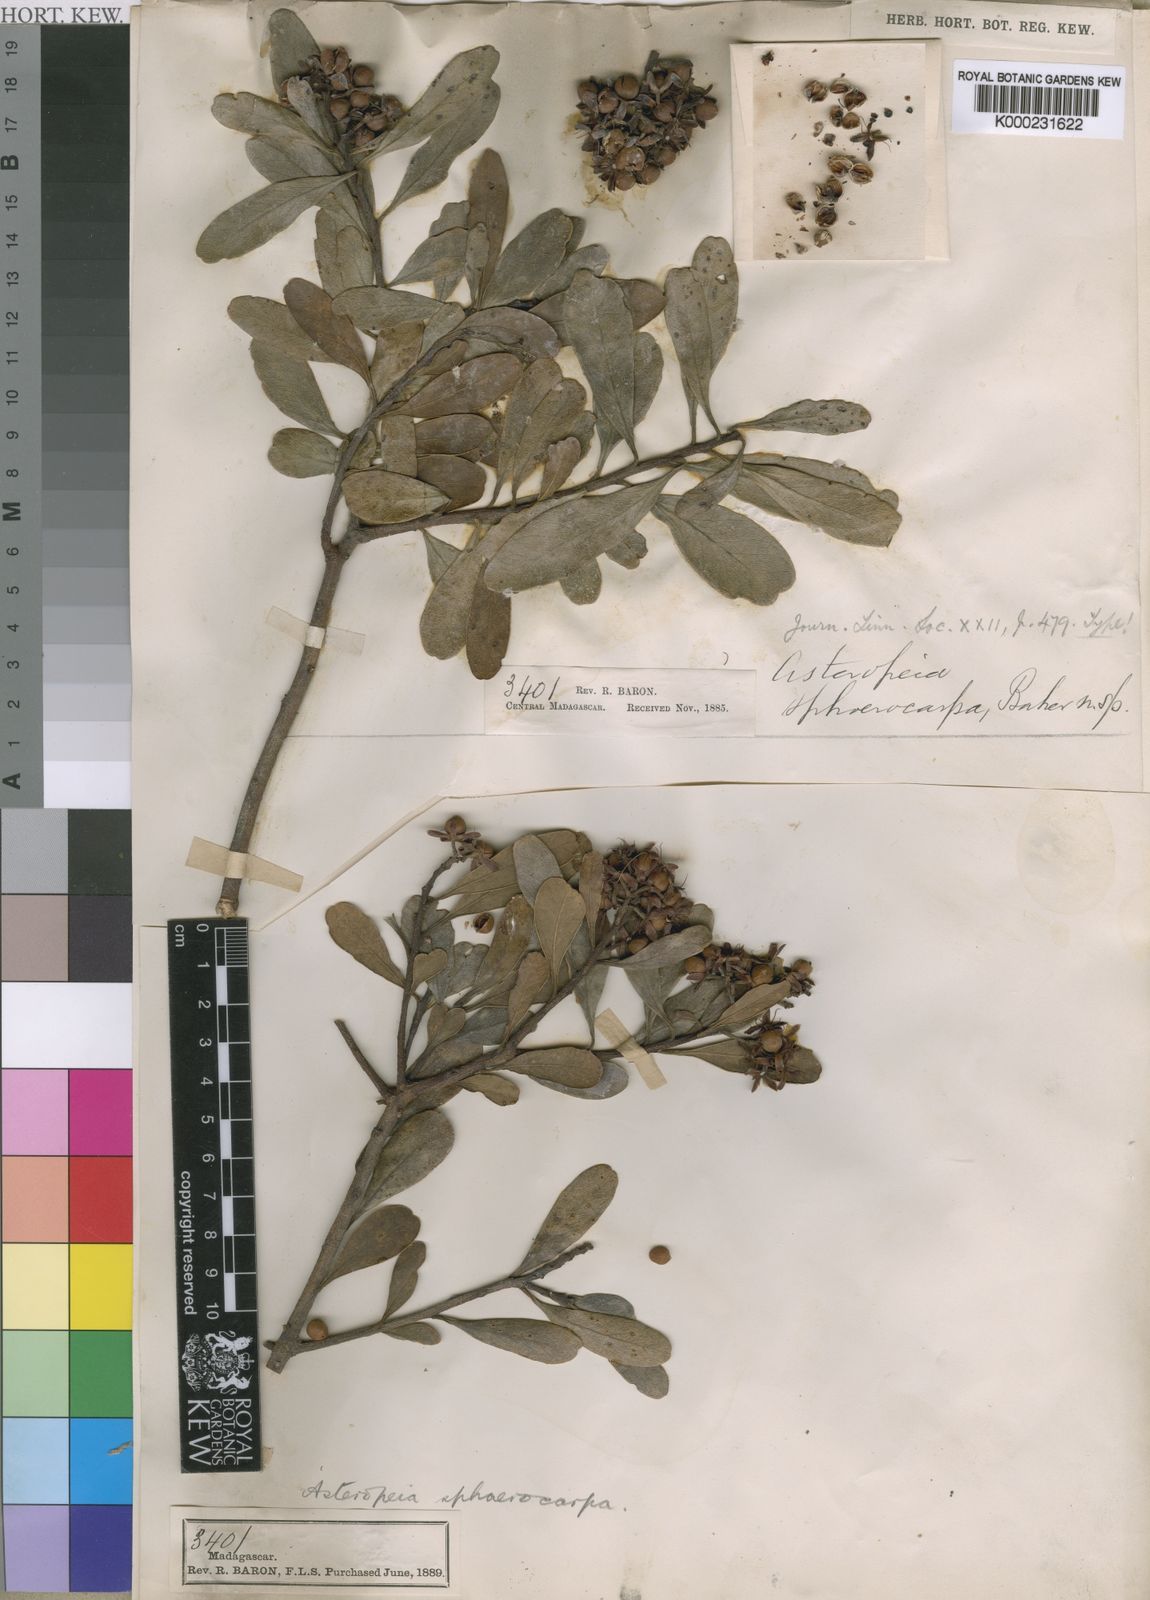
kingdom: Plantae
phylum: Tracheophyta
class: Magnoliopsida
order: Caryophyllales
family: Asteropeiaceae
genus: Asteropeia
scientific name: Asteropeia densiflora
